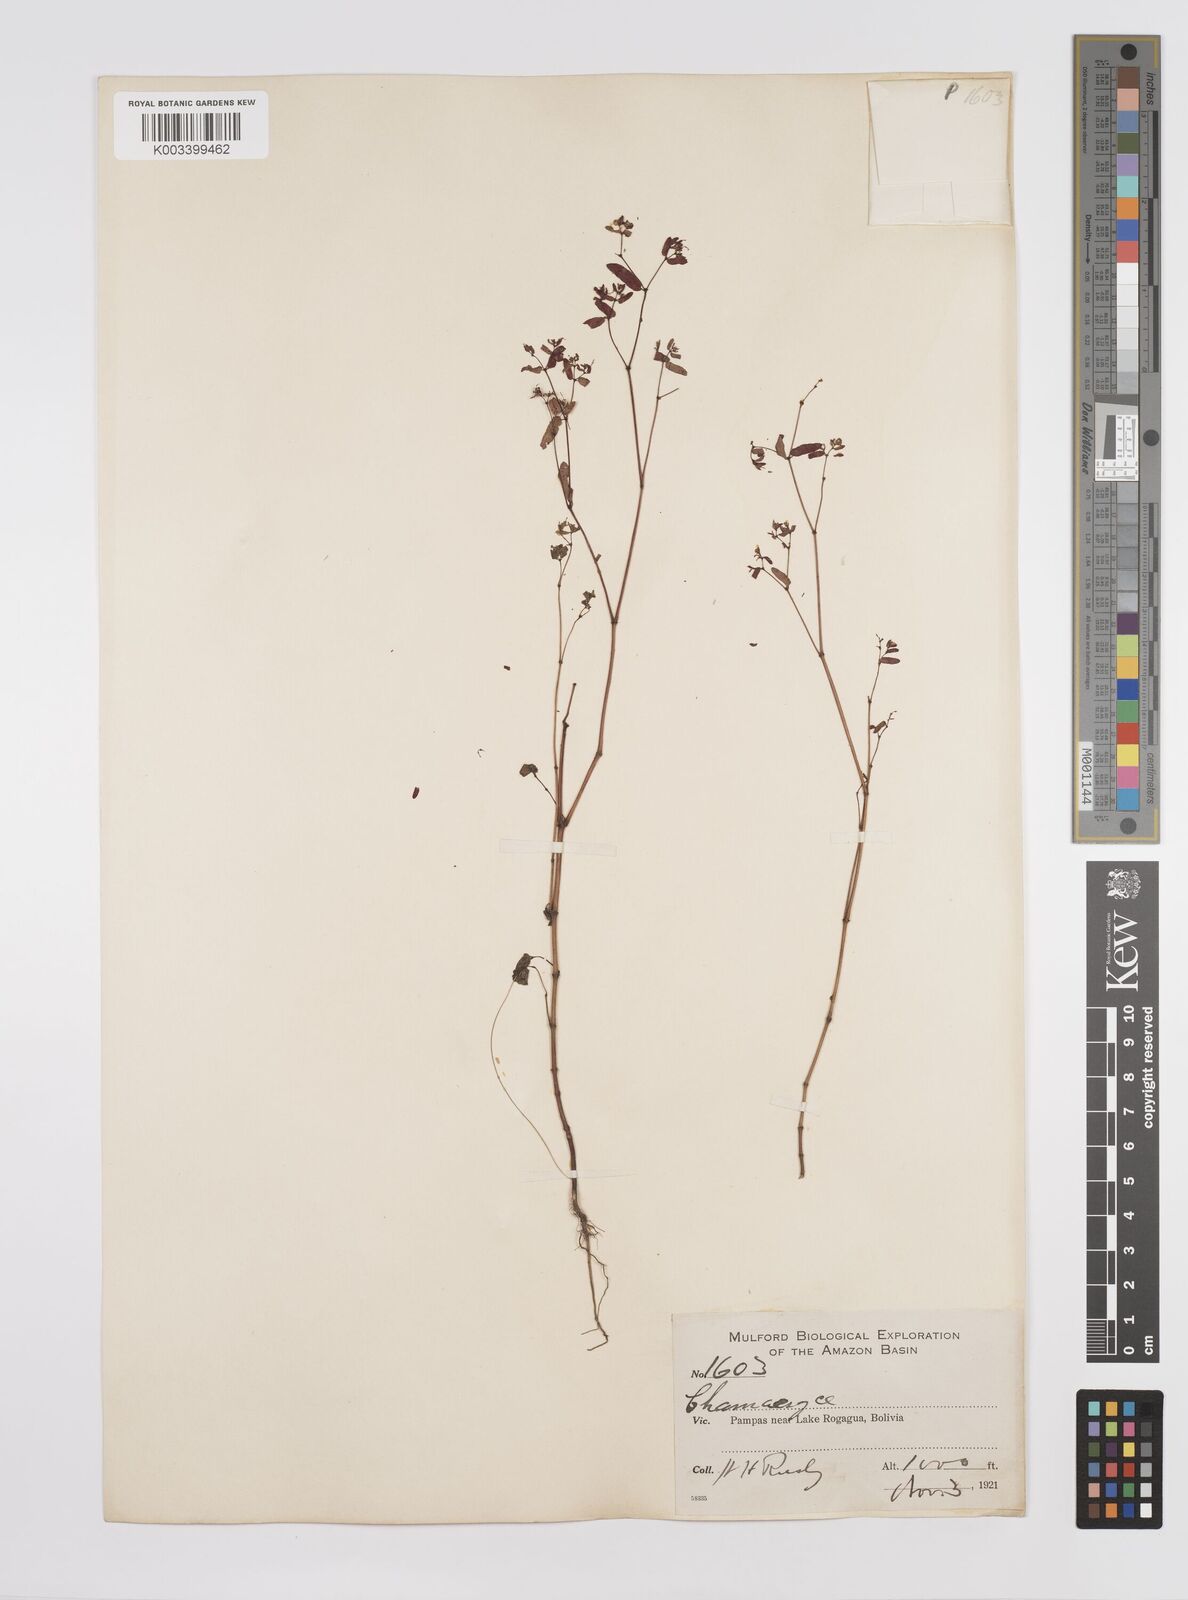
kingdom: Plantae
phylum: Tracheophyta
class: Magnoliopsida
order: Malpighiales
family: Euphorbiaceae
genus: Euphorbia
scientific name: Euphorbia
